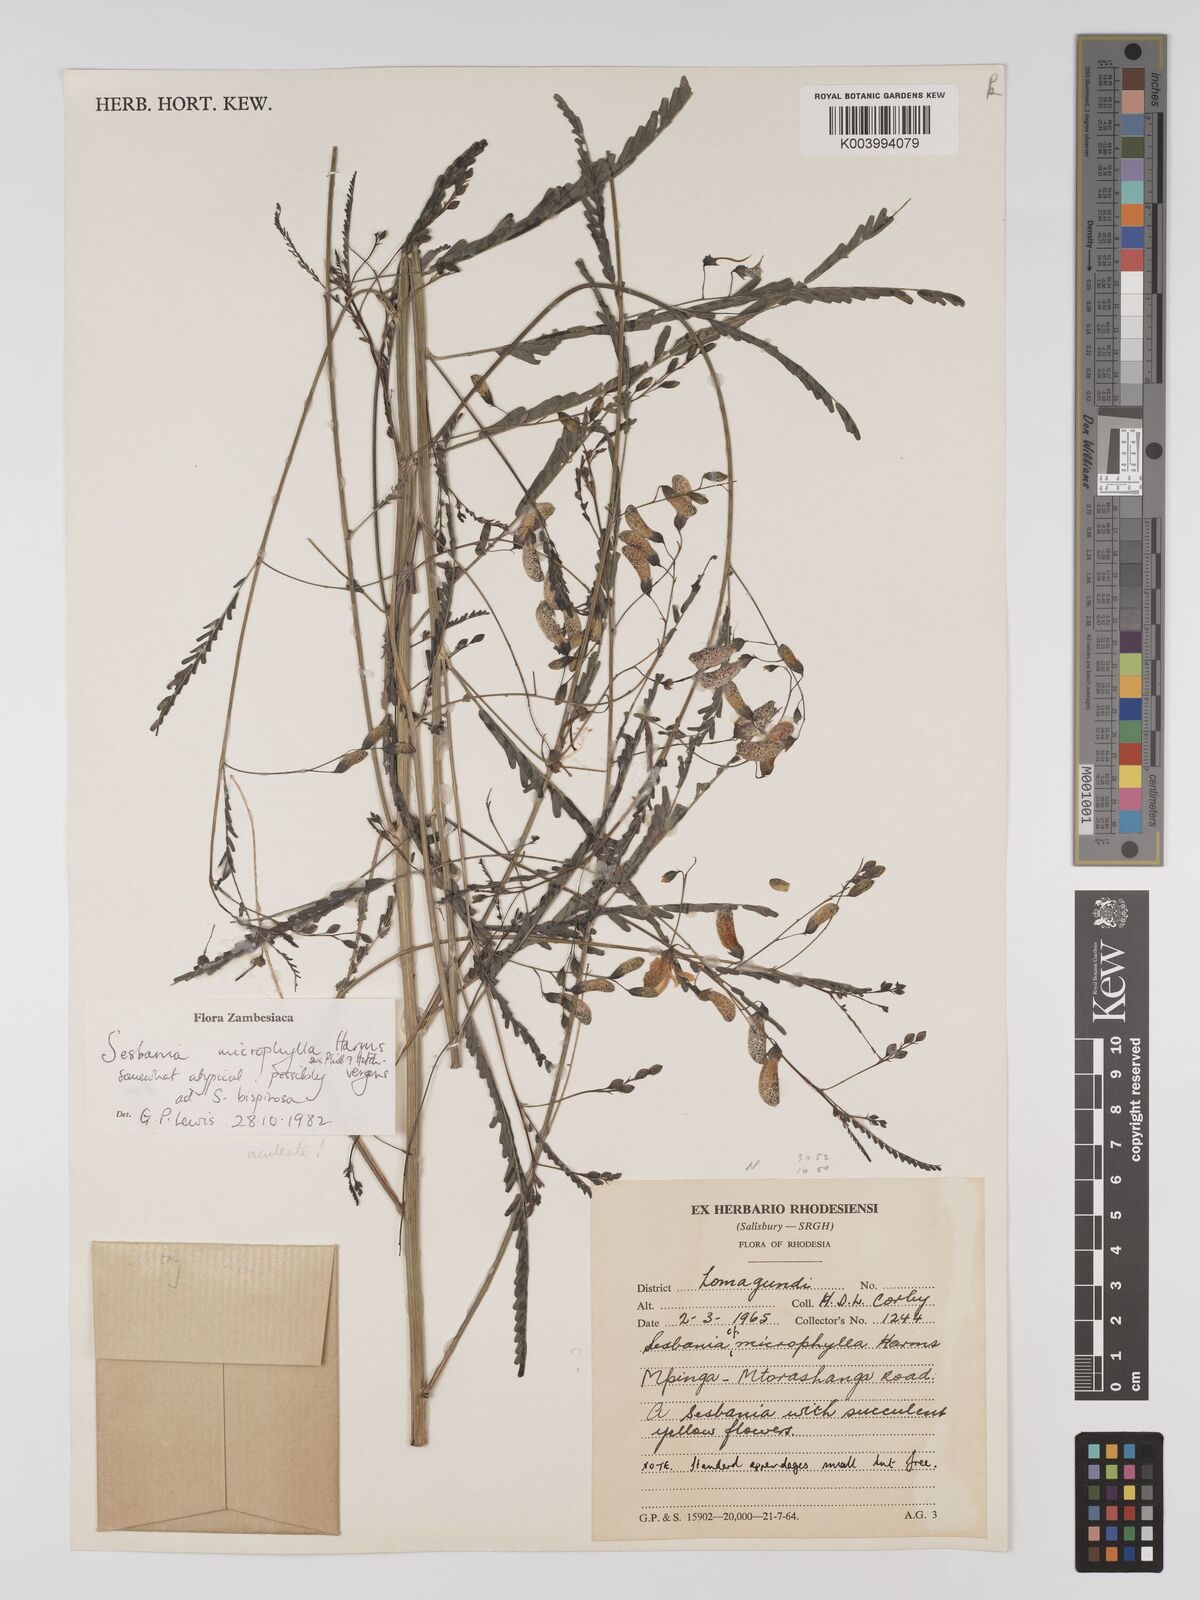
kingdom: Plantae
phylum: Tracheophyta
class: Magnoliopsida
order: Fabales
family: Fabaceae
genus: Sesbania
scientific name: Sesbania microphylla
